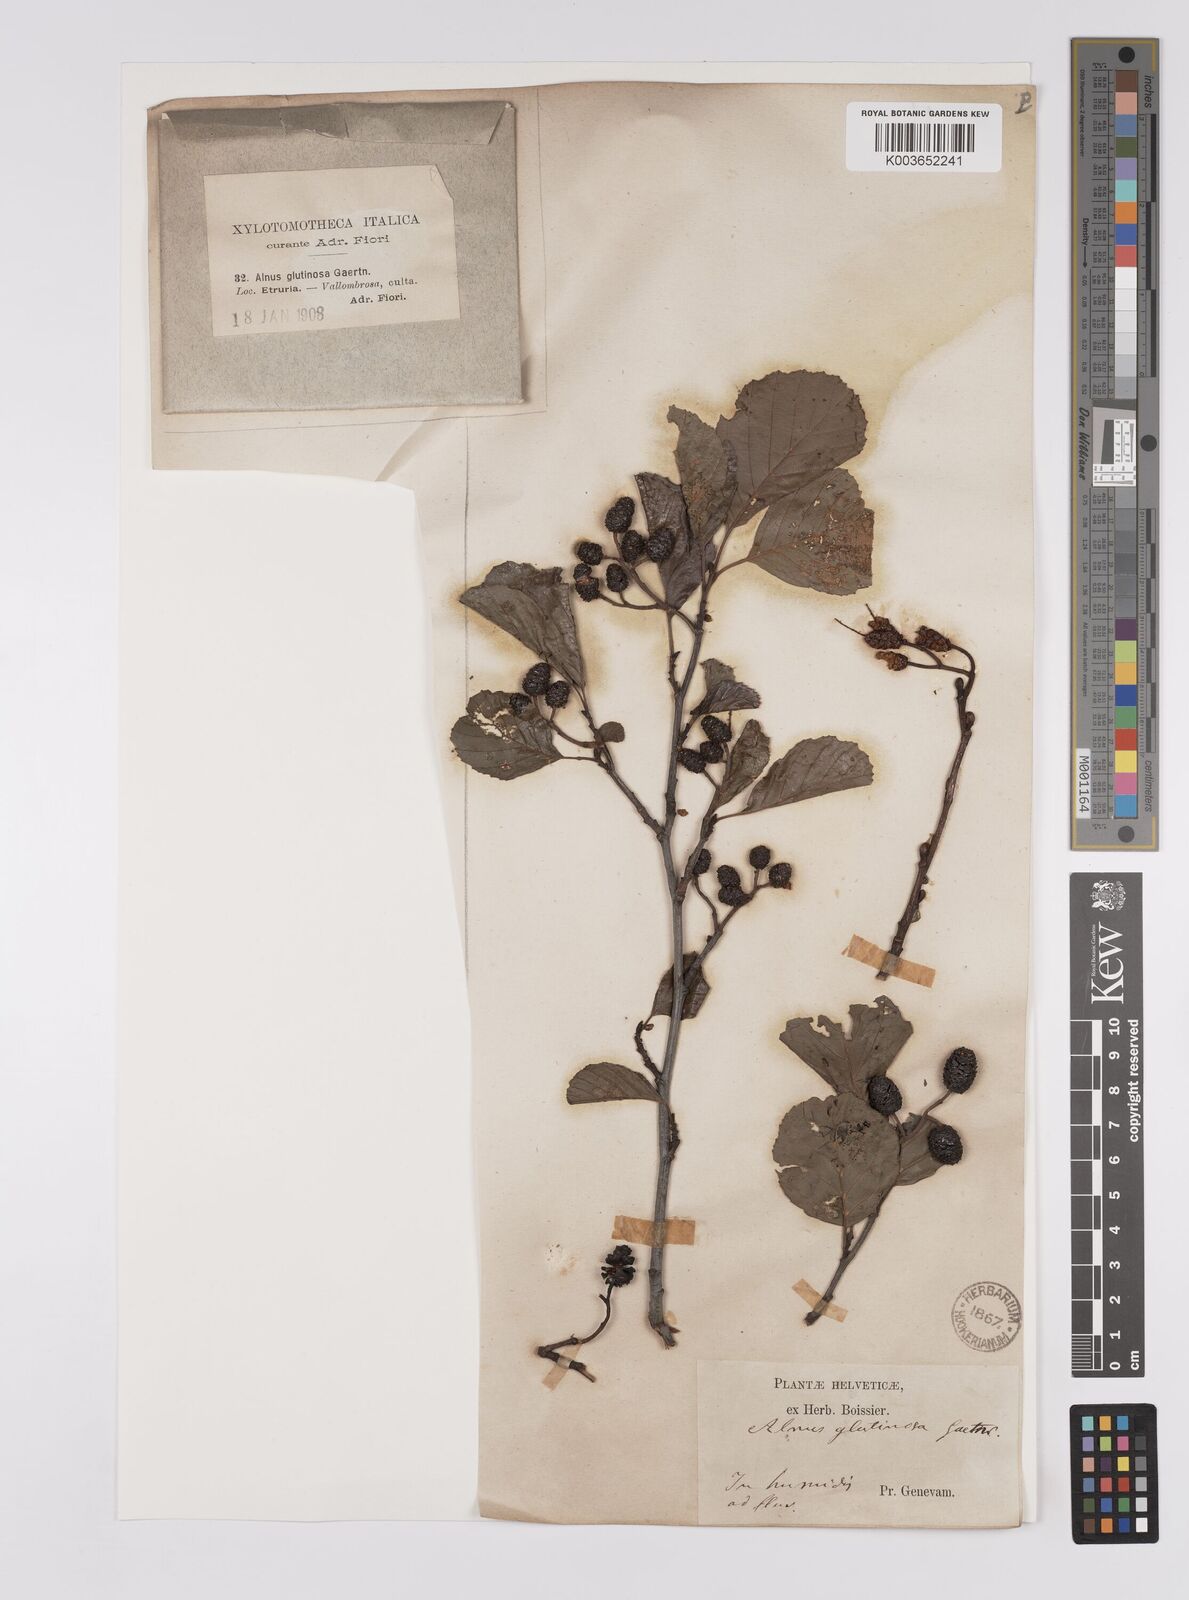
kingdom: Plantae
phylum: Tracheophyta
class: Magnoliopsida
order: Fagales
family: Betulaceae
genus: Alnus
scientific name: Alnus glutinosa
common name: Black alder
